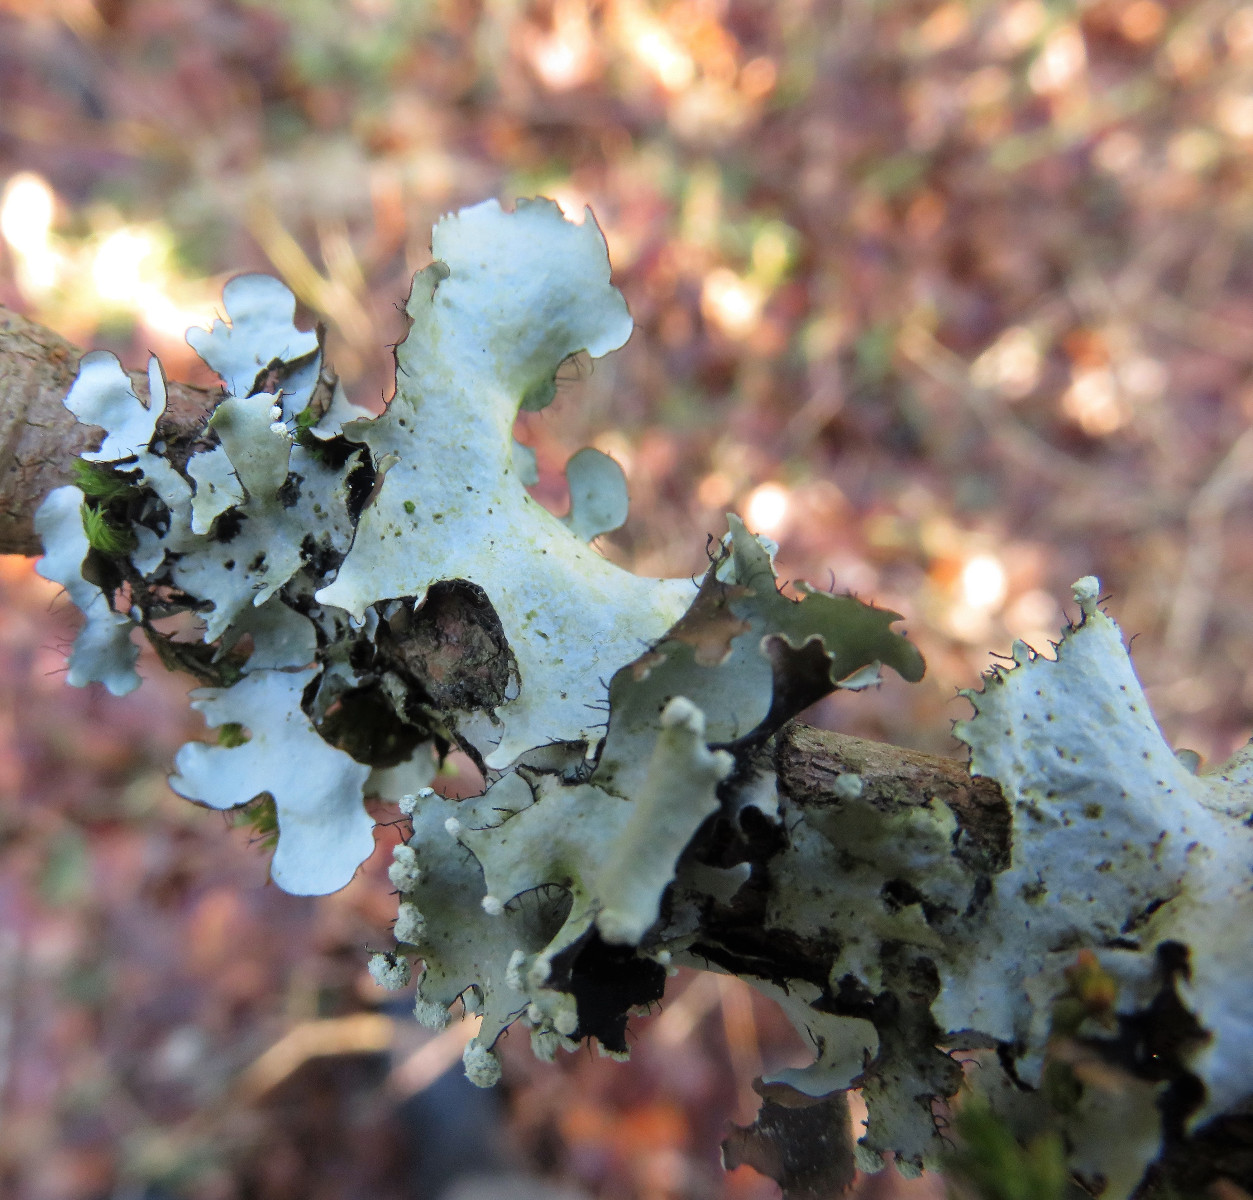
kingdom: Fungi
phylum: Ascomycota
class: Lecanoromycetes
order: Lecanorales
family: Parmeliaceae
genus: Parmotrema
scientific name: Parmotrema perlatum
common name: trådet skållav
